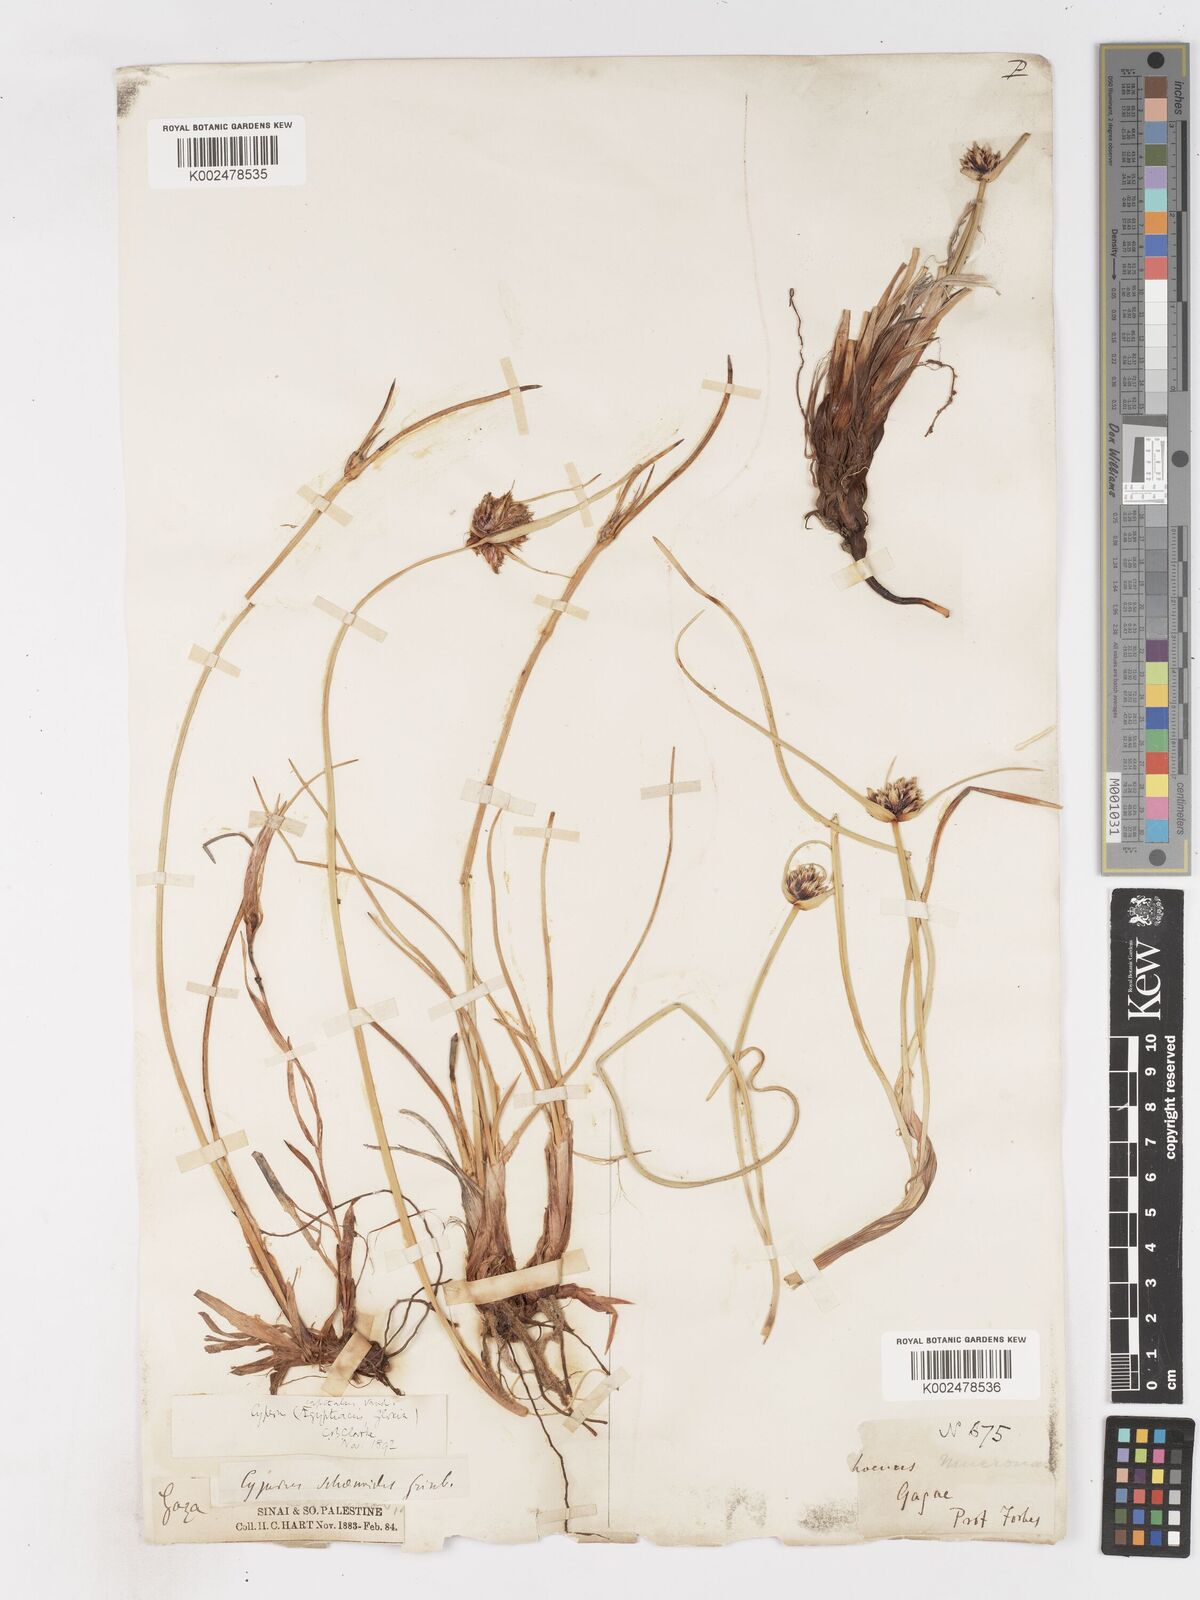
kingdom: Plantae
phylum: Tracheophyta
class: Liliopsida
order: Poales
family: Cyperaceae
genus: Cyperus
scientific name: Cyperus capitatus
